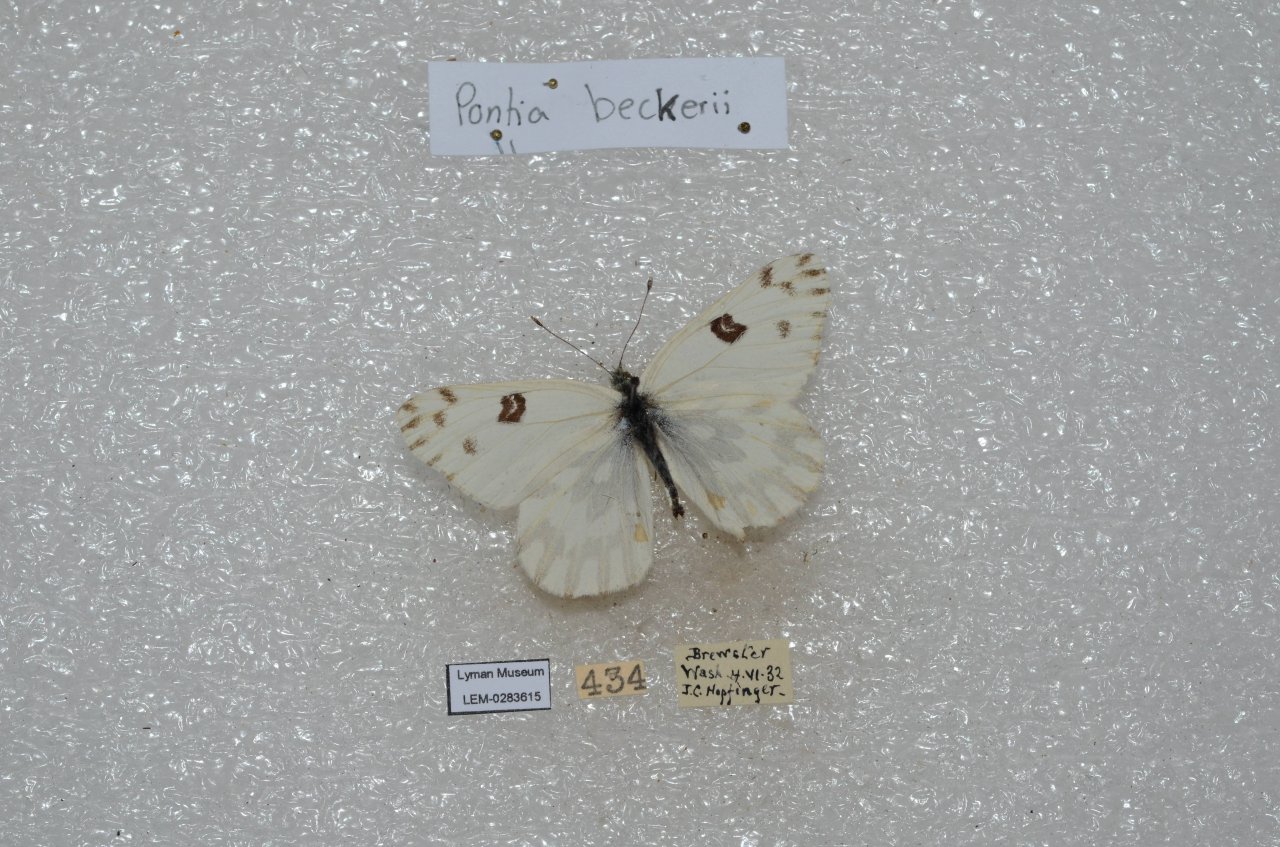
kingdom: Animalia
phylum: Arthropoda
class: Insecta
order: Lepidoptera
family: Pieridae
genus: Pontia
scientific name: Pontia beckerii
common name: Becker's White
